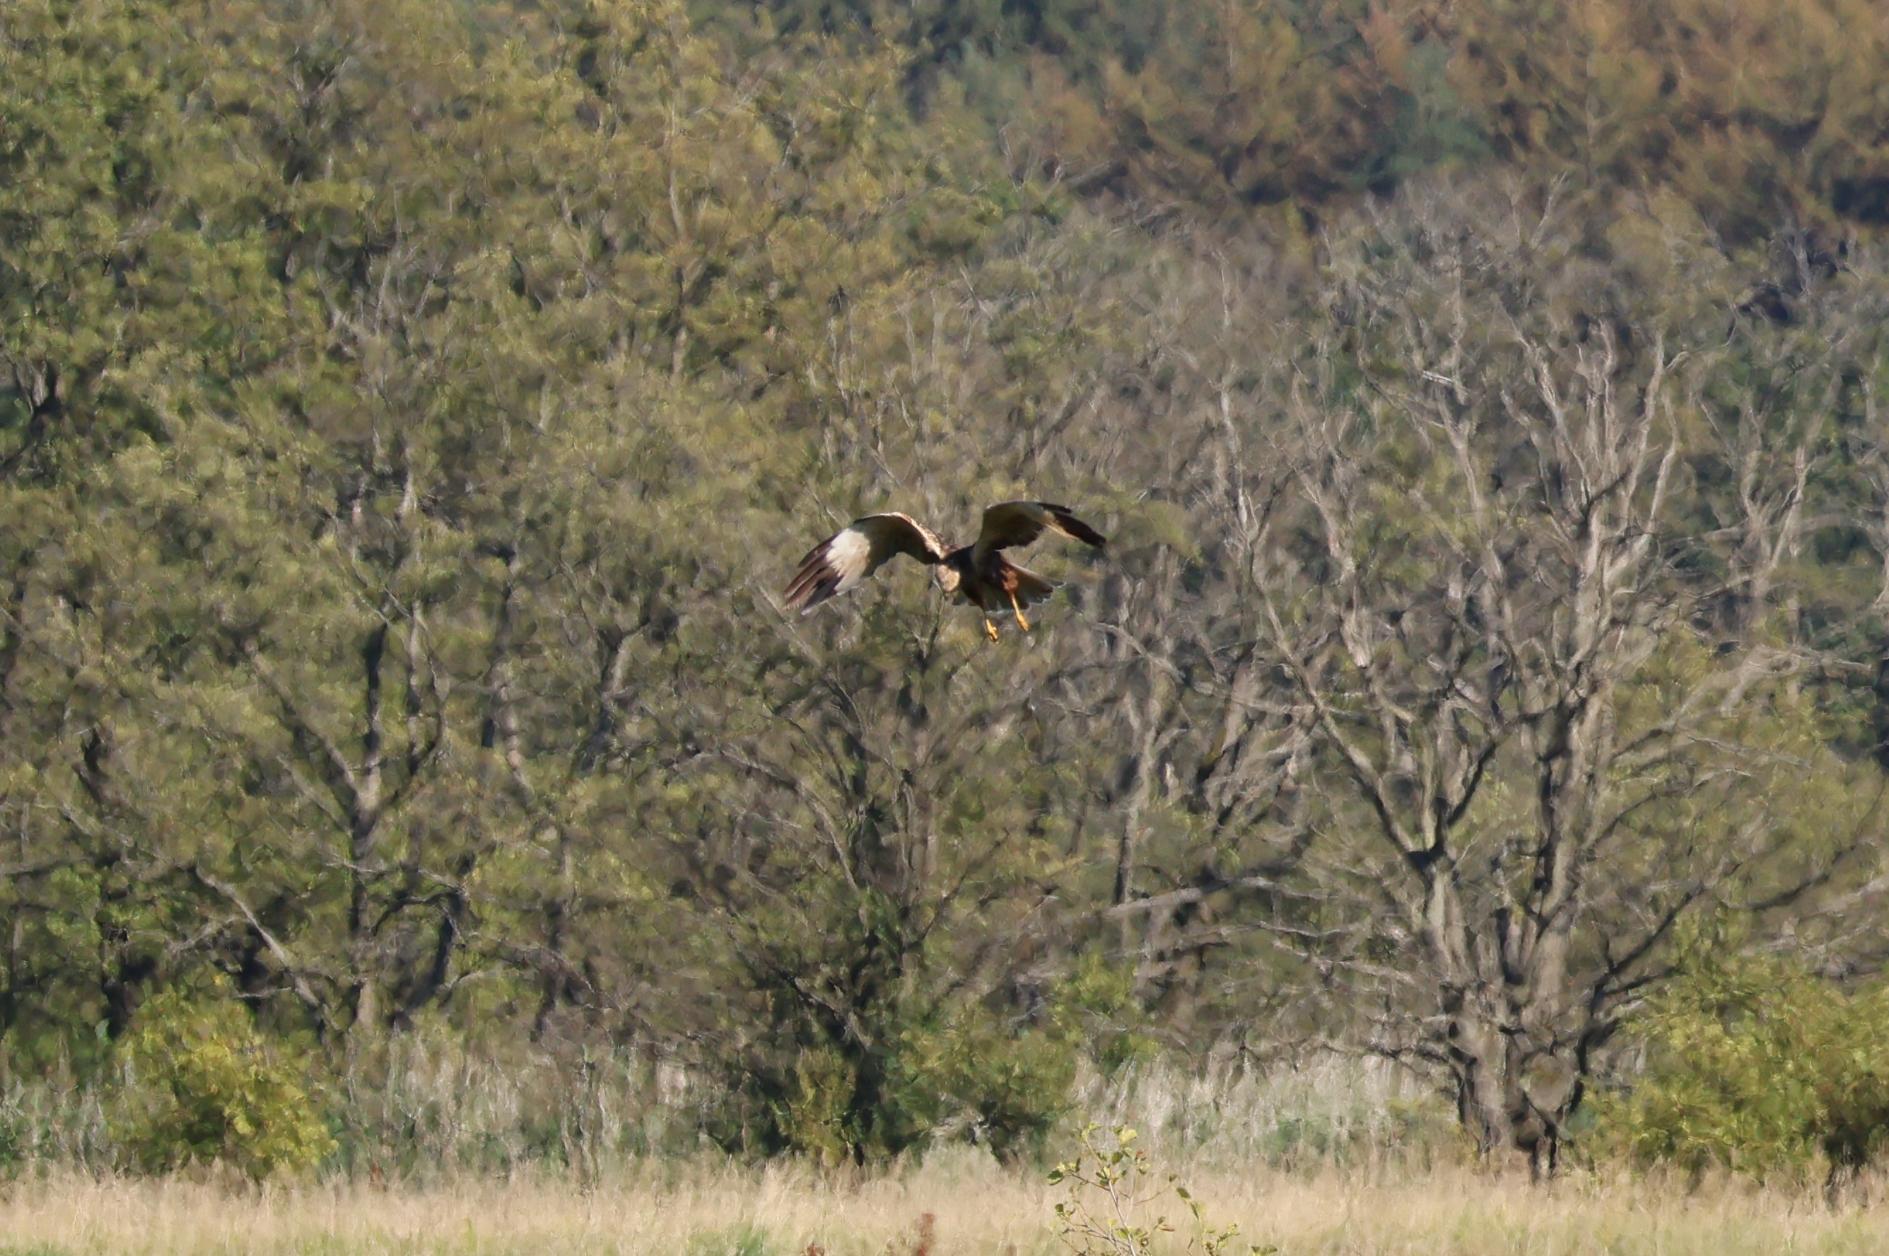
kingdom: Animalia
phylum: Chordata
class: Aves
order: Accipitriformes
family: Accipitridae
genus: Circus
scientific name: Circus aeruginosus
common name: Rørhøg
